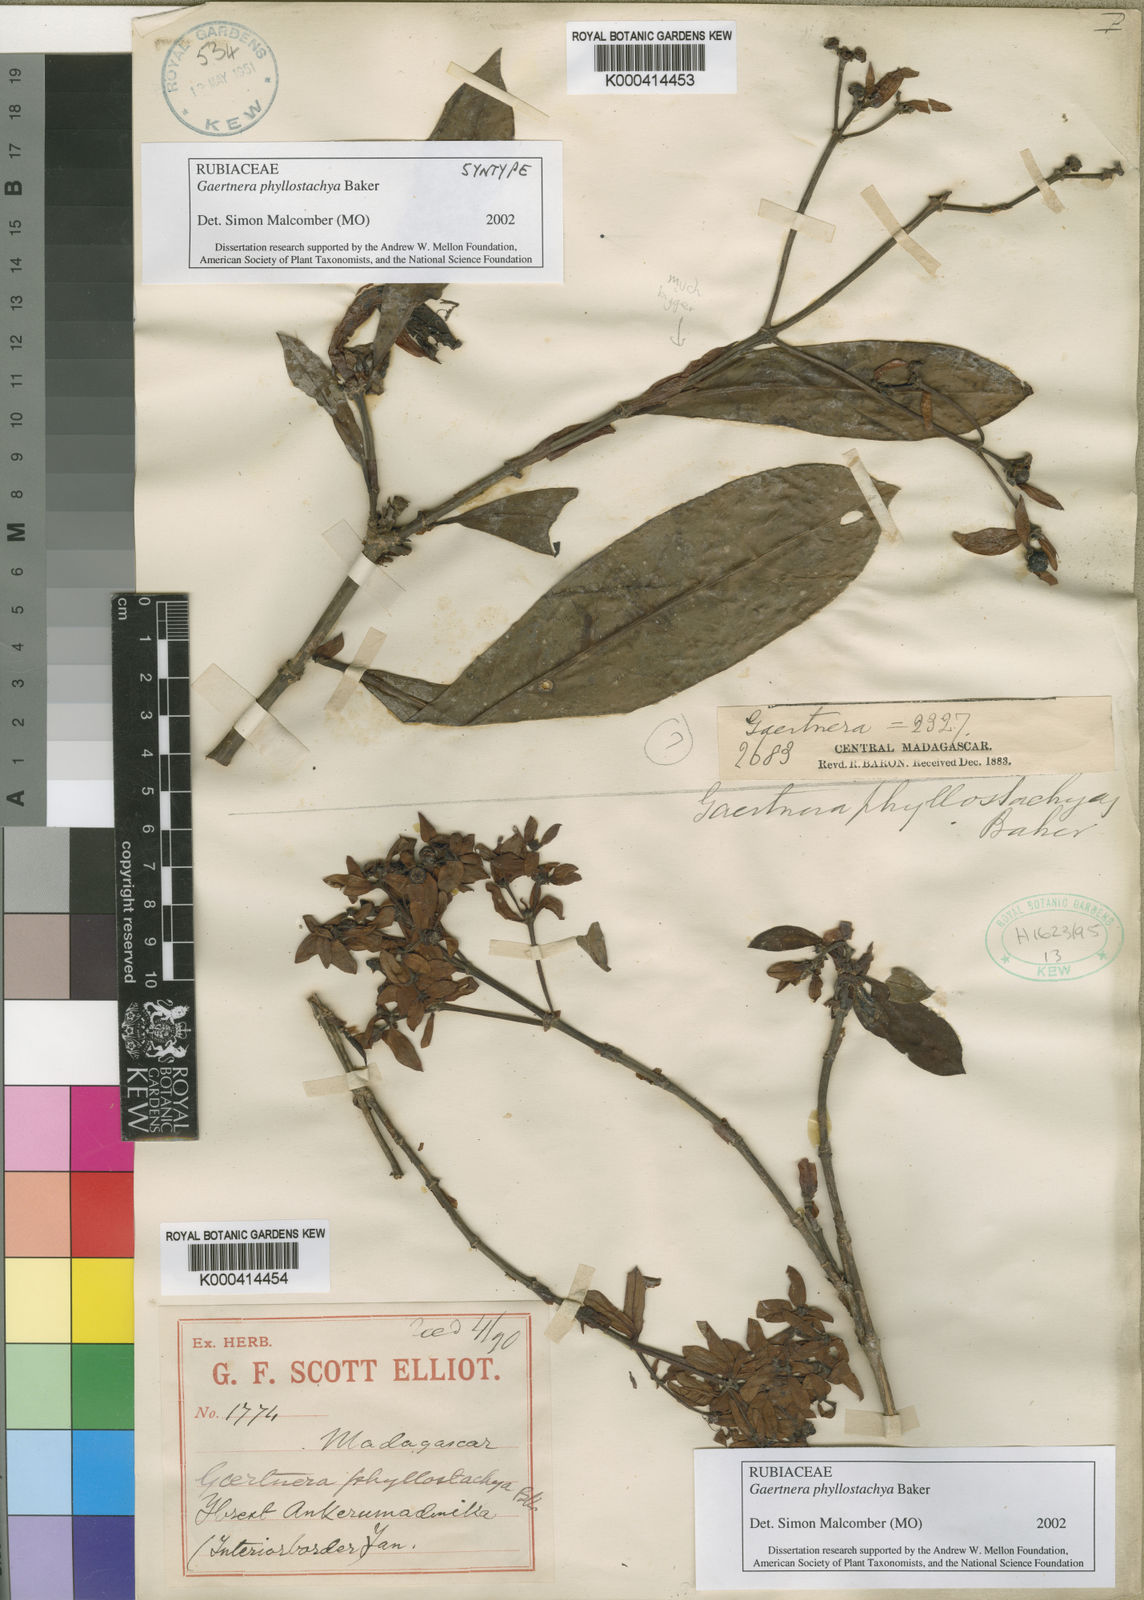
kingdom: Plantae
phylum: Tracheophyta
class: Magnoliopsida
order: Gentianales
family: Rubiaceae
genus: Gaertnera
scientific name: Gaertnera phyllostachya
